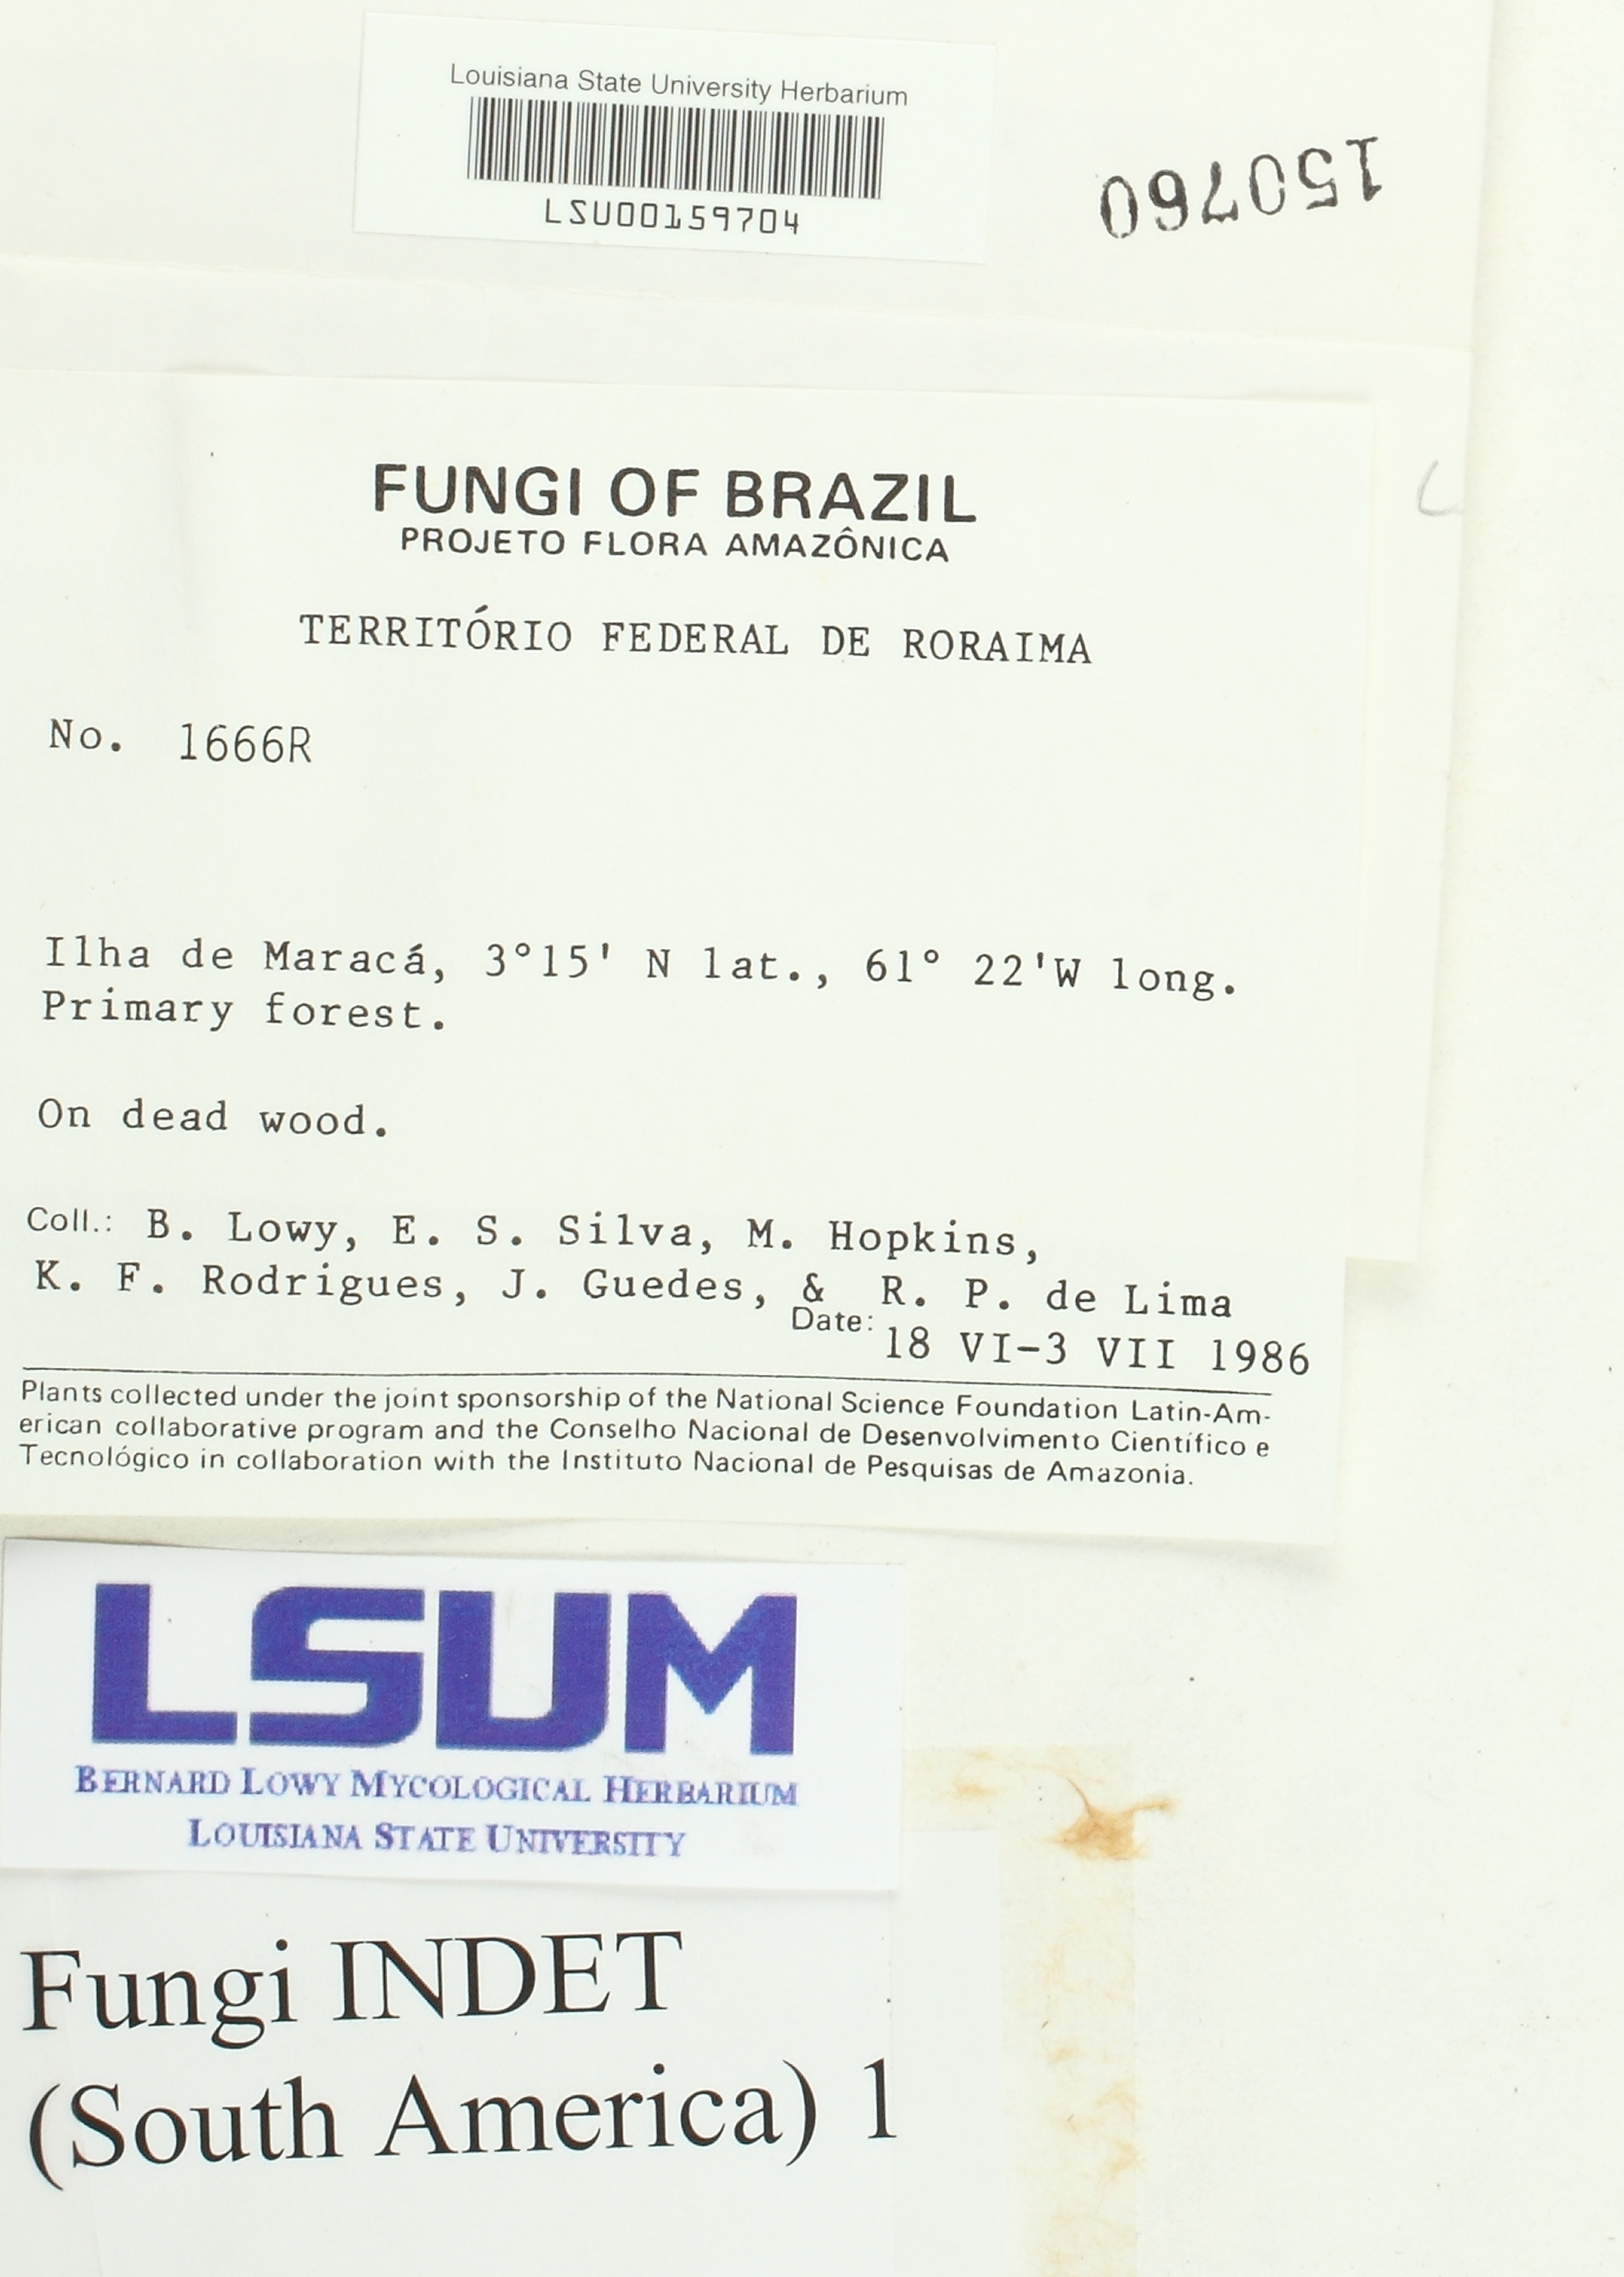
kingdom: Fungi
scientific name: Fungi
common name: Fungi
